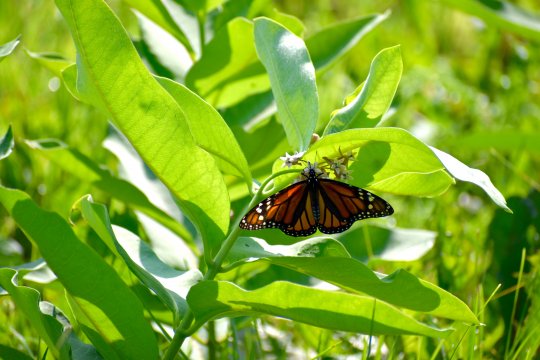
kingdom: Animalia
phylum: Arthropoda
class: Insecta
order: Lepidoptera
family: Nymphalidae
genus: Danaus
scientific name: Danaus plexippus
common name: Monarch
